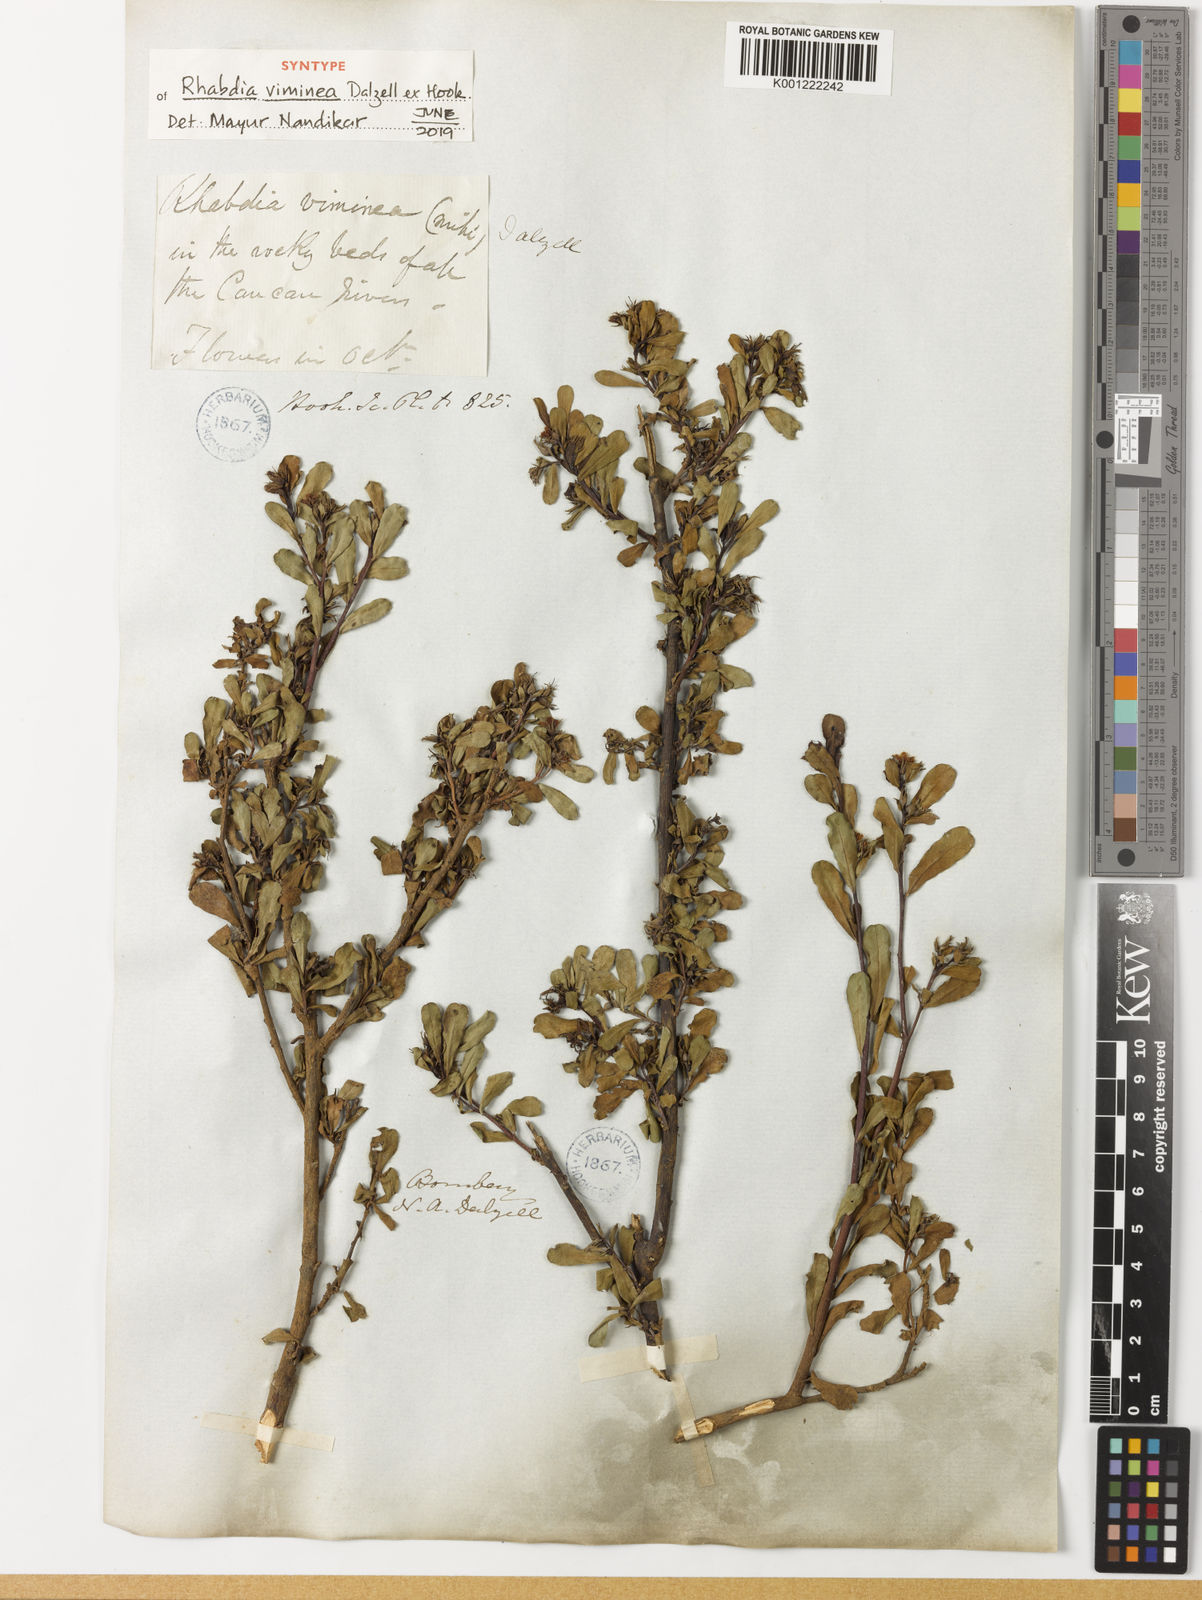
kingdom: Plantae
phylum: Tracheophyta
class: Magnoliopsida
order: Boraginales
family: Boraginaceae
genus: Rotula
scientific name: Rotula
